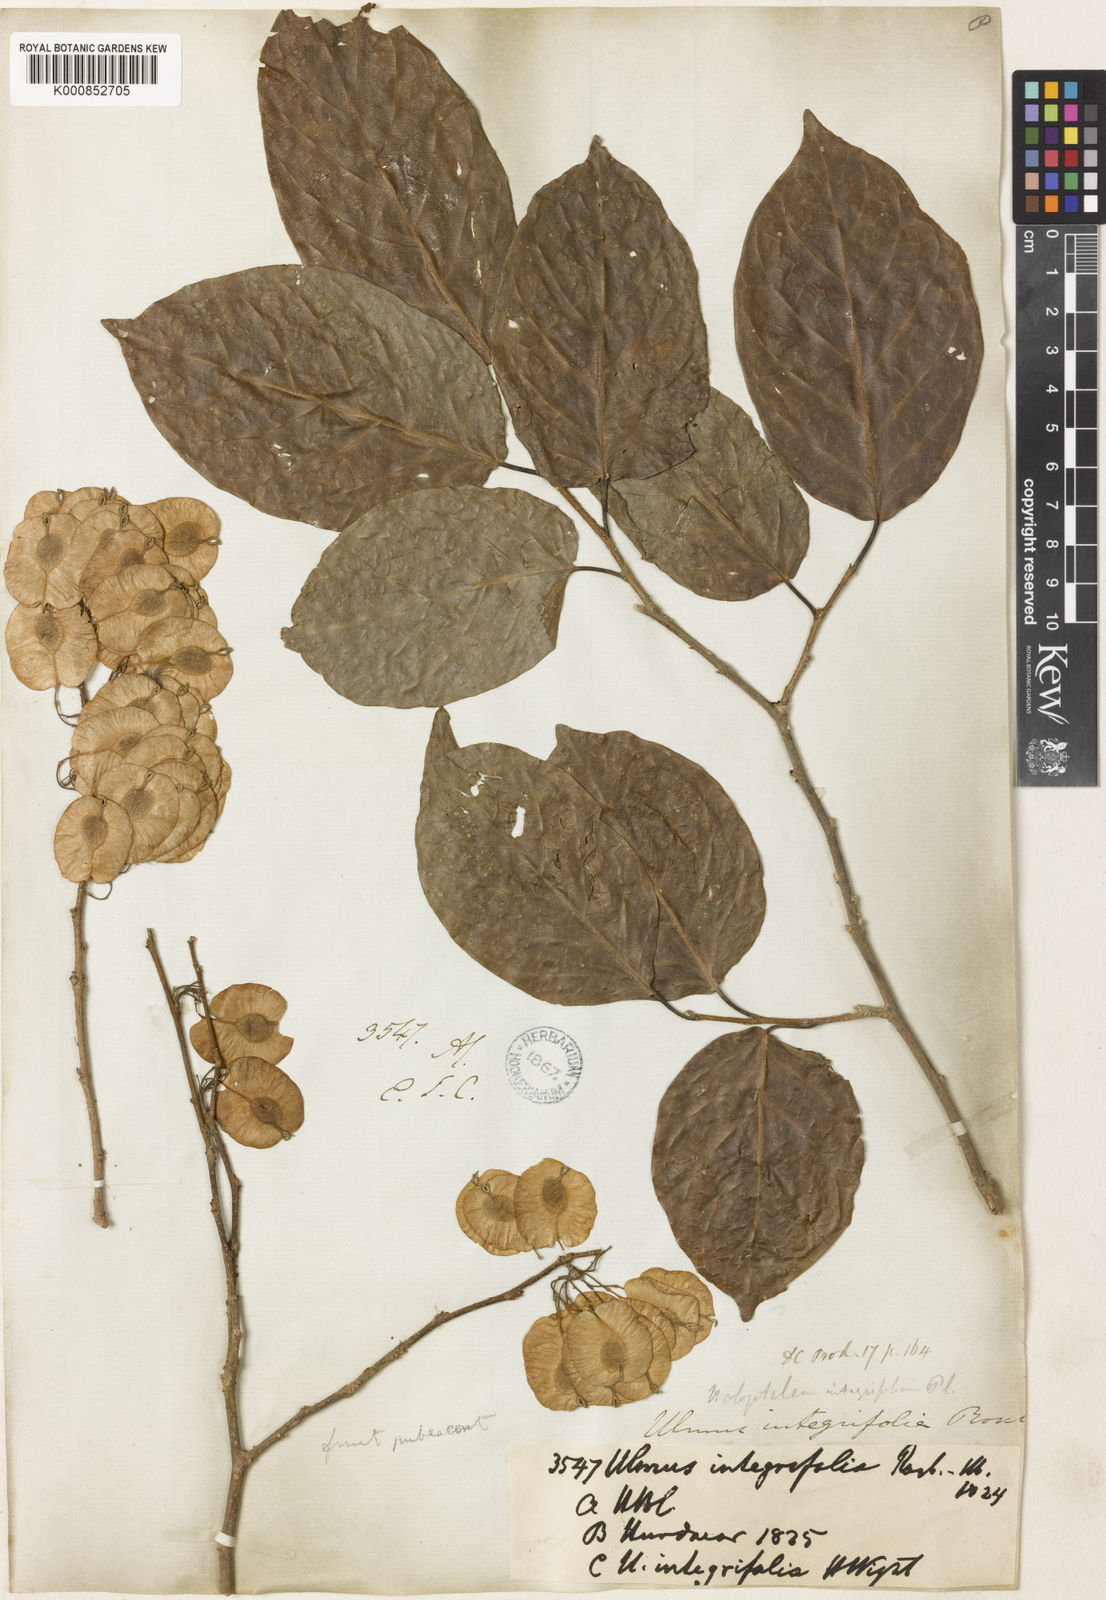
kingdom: Plantae
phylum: Tracheophyta
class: Magnoliopsida
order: Rosales
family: Ulmaceae
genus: Holoptelea
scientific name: Holoptelea integrifolia
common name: Indian-elm
